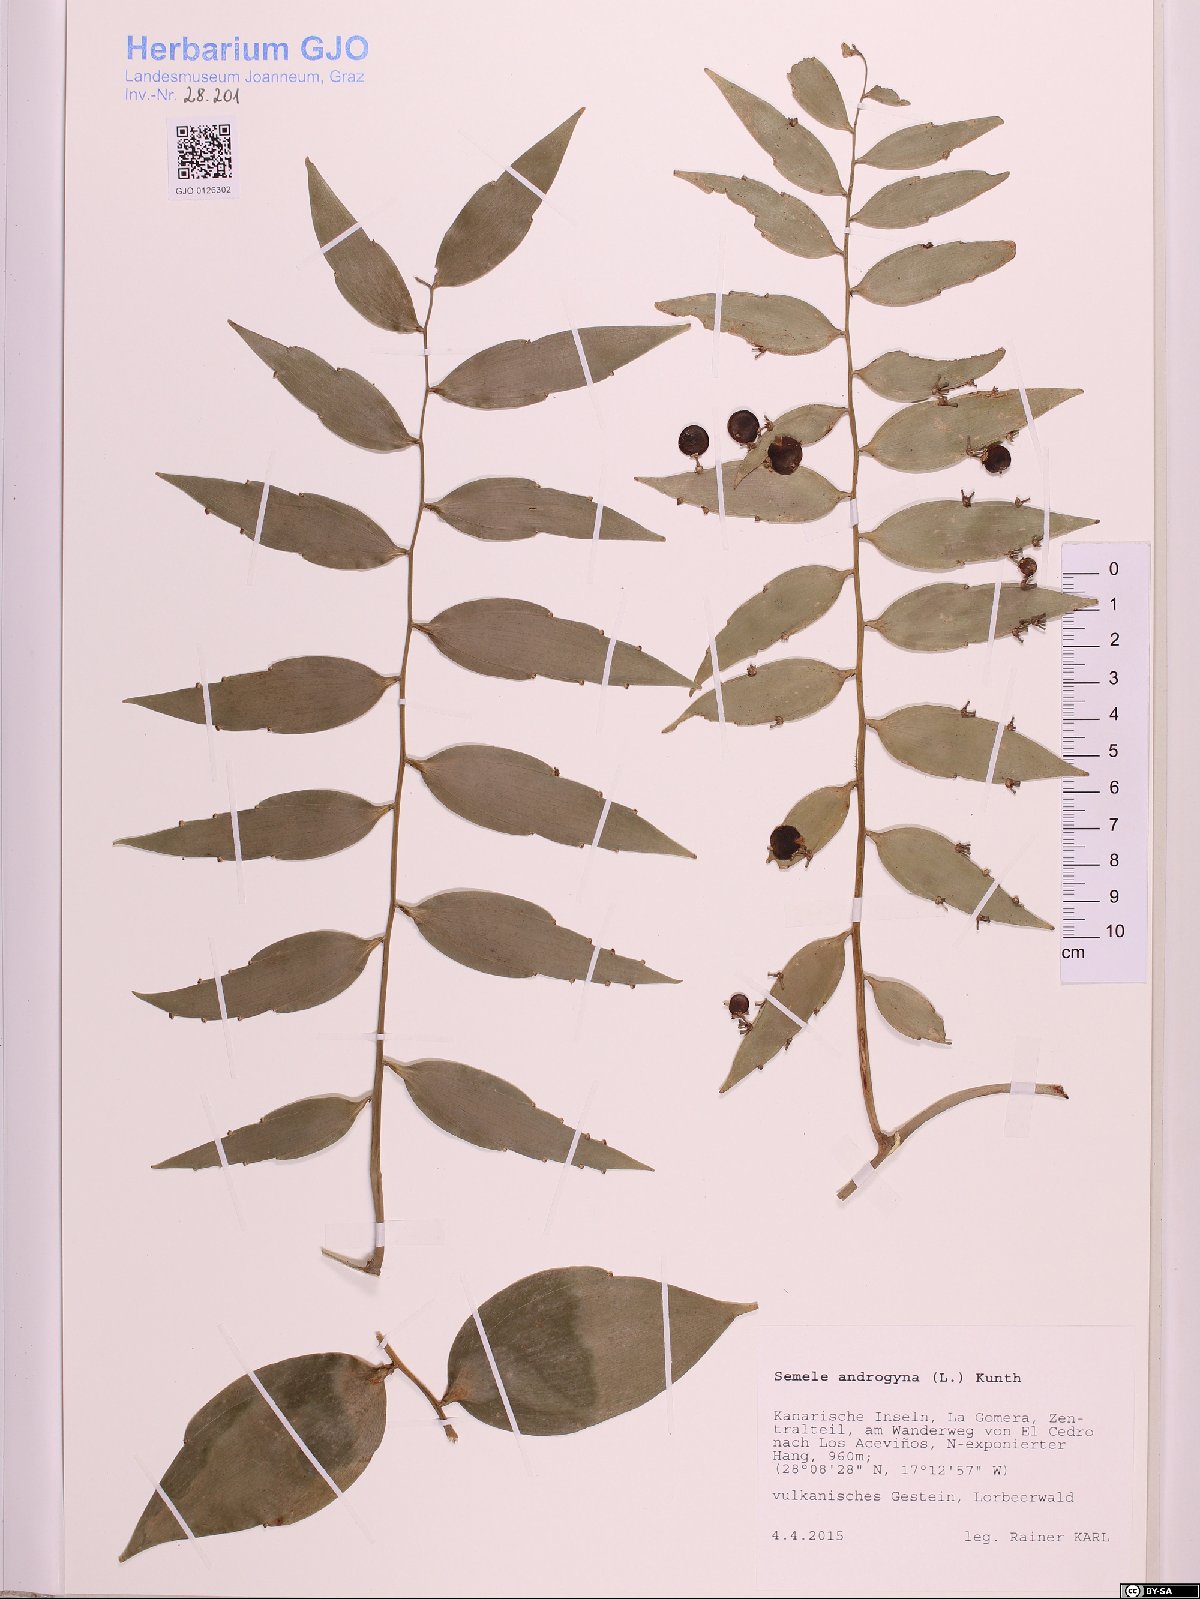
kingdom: Plantae
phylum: Tracheophyta
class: Liliopsida
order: Asparagales
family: Asparagaceae
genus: Semele
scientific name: Semele androgyna
